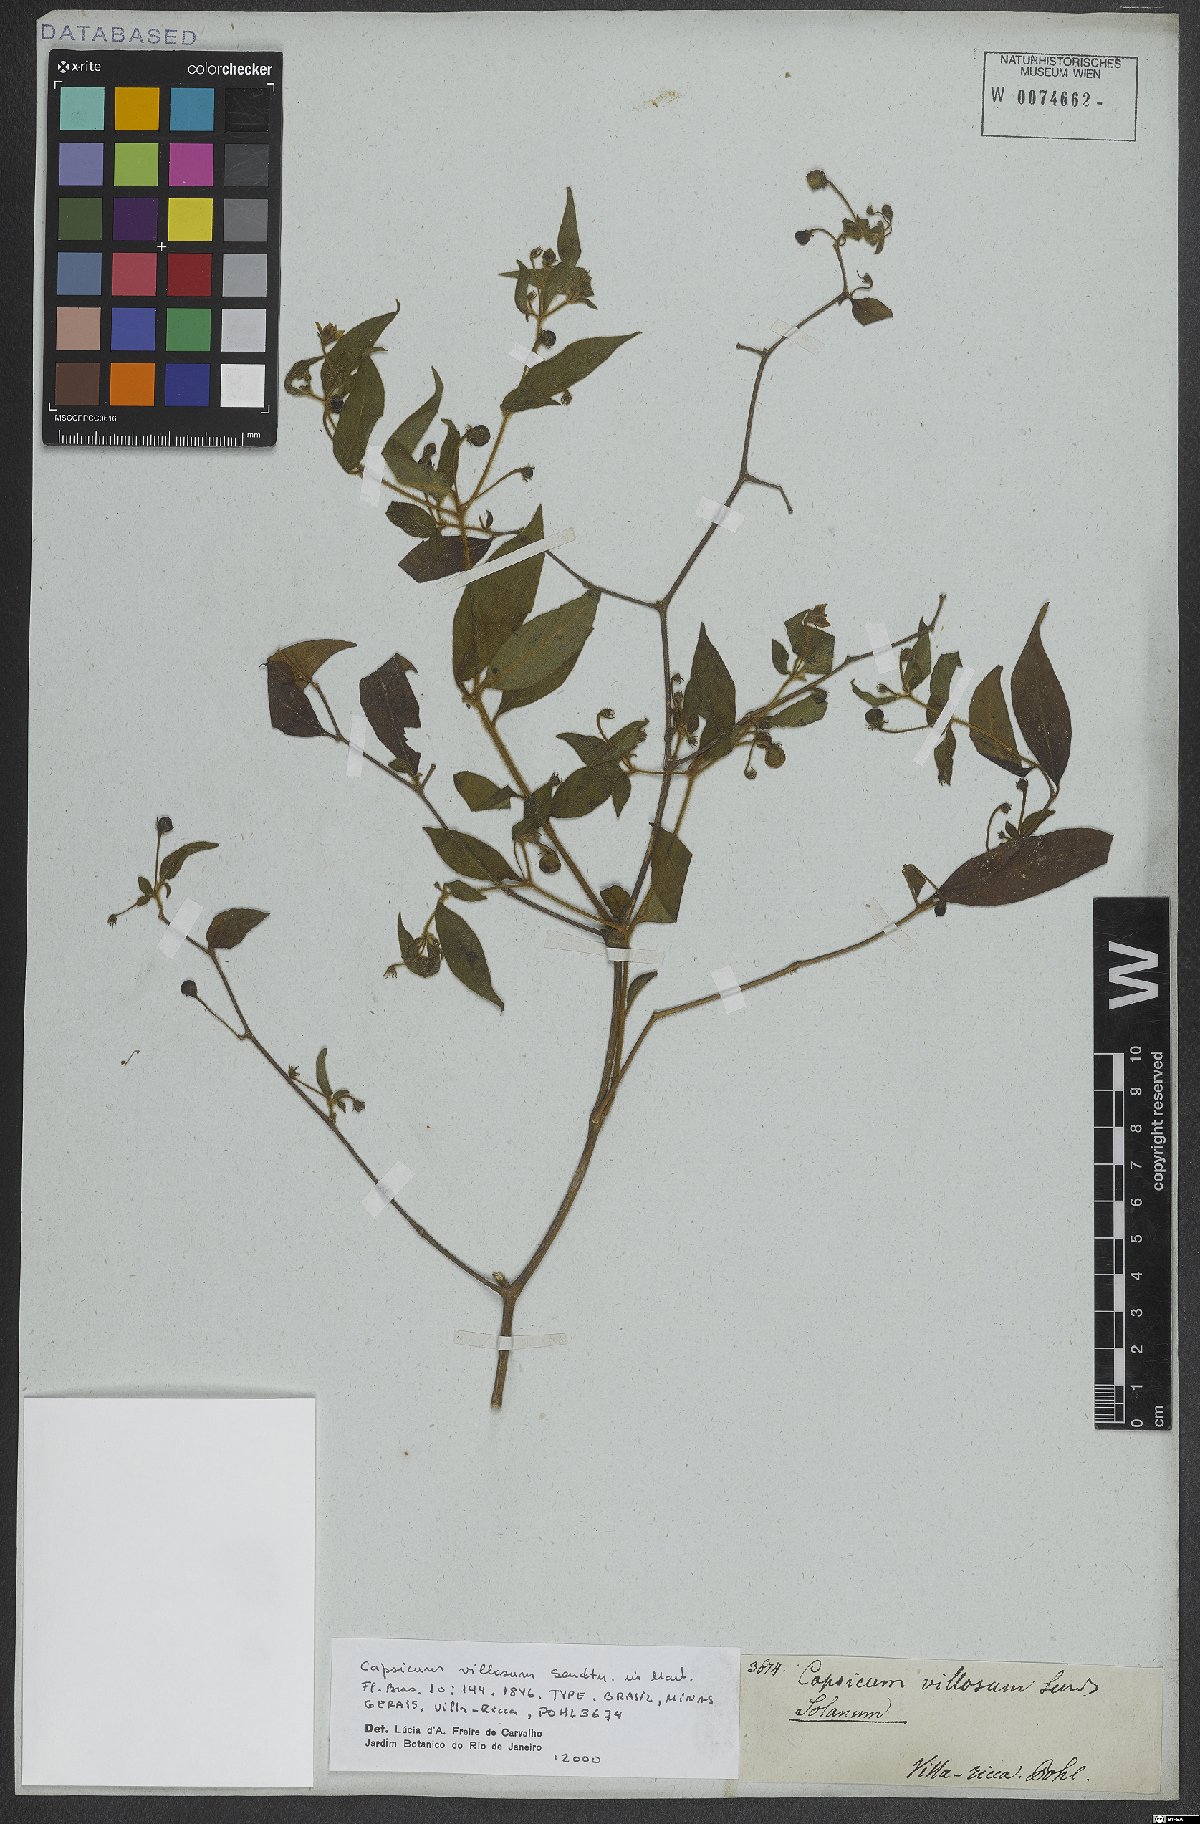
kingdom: Plantae
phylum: Tracheophyta
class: Magnoliopsida
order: Solanales
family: Solanaceae
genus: Capsicum
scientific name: Capsicum villosum
